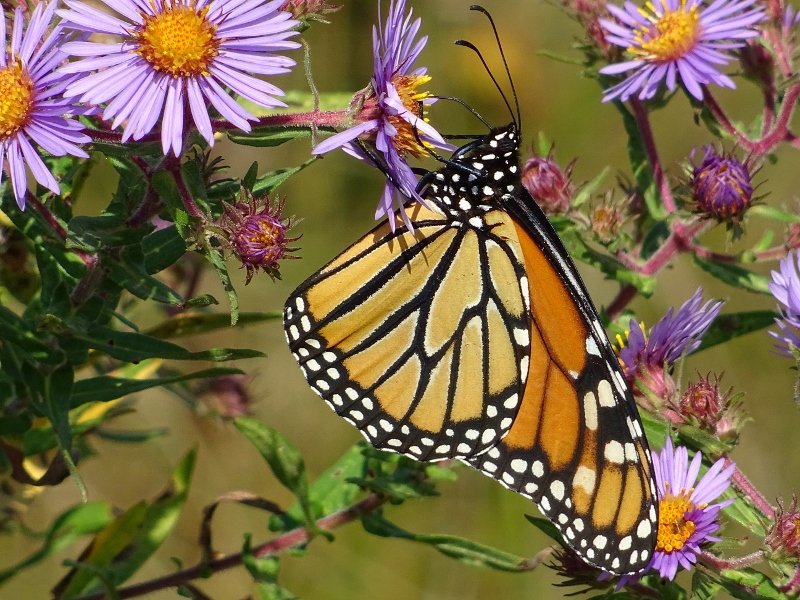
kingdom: Animalia
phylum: Arthropoda
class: Insecta
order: Lepidoptera
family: Nymphalidae
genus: Danaus
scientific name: Danaus plexippus
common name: Monarch
